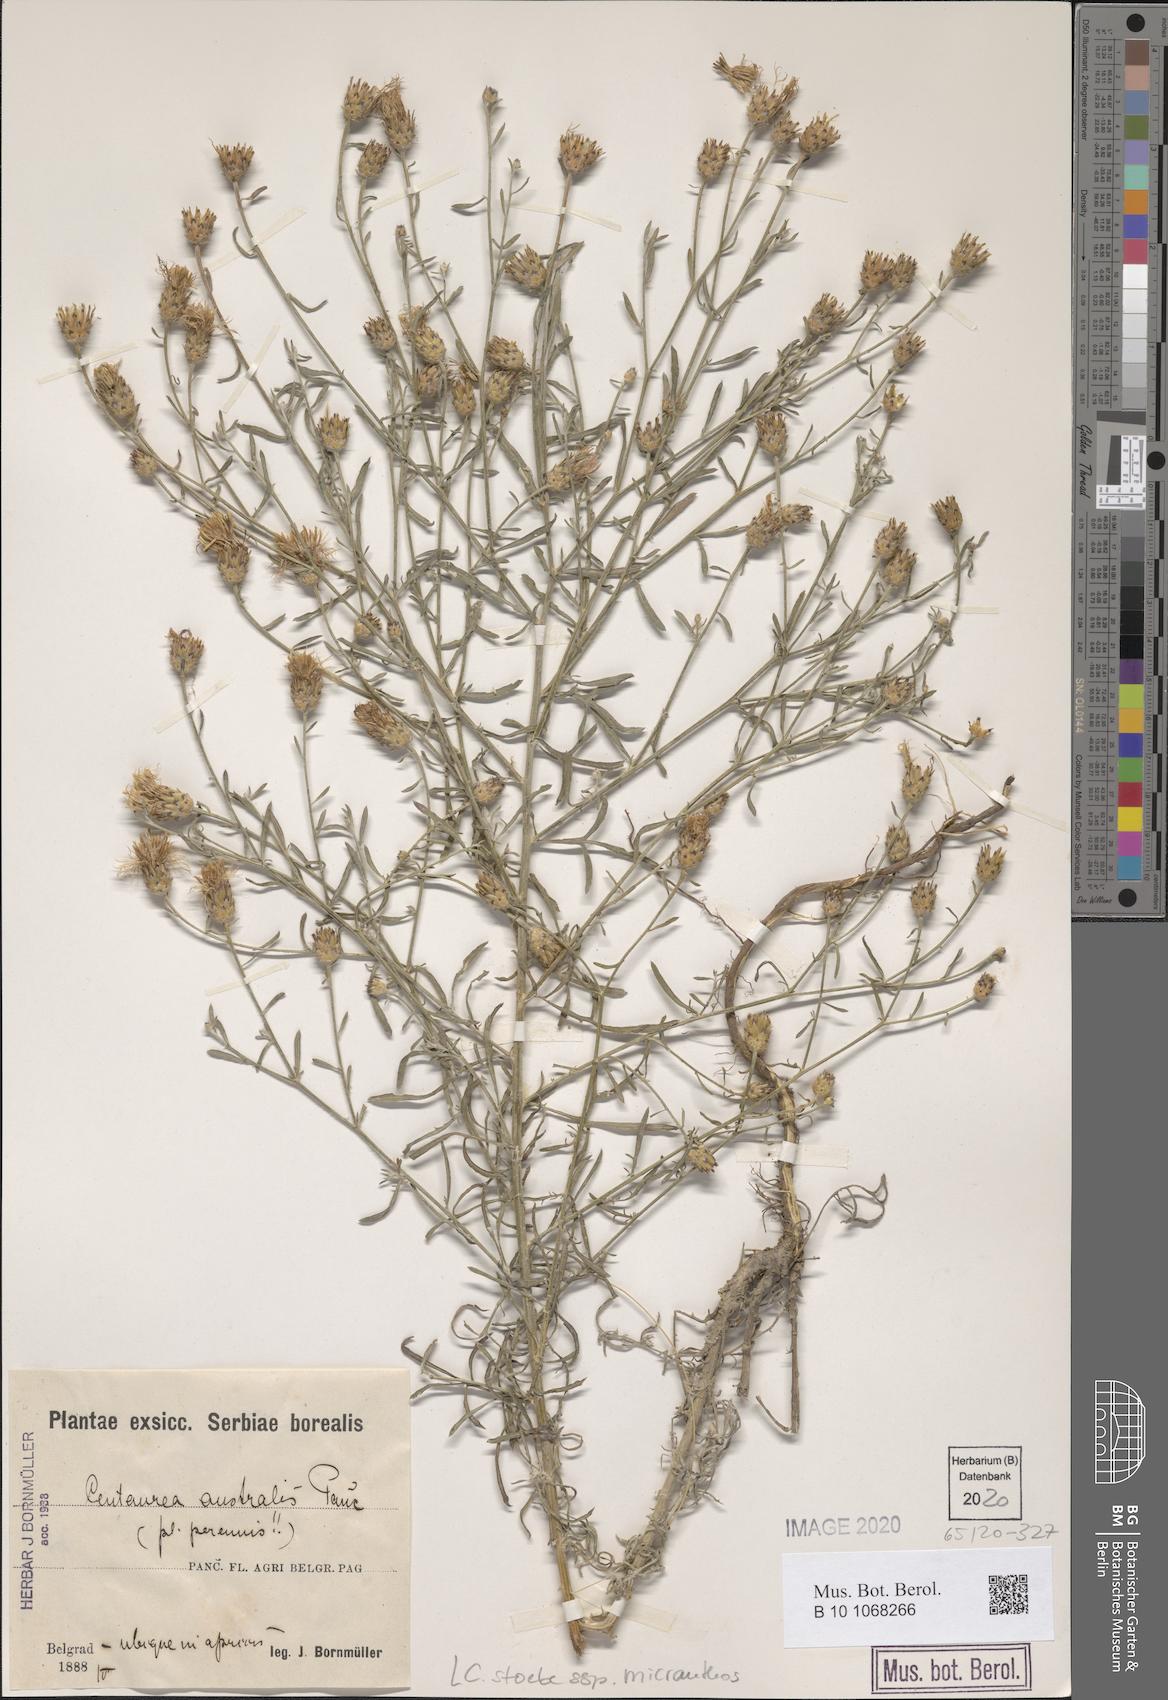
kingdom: Plantae
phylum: Tracheophyta
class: Magnoliopsida
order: Asterales
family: Asteraceae
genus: Centaurea
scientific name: Centaurea australis
